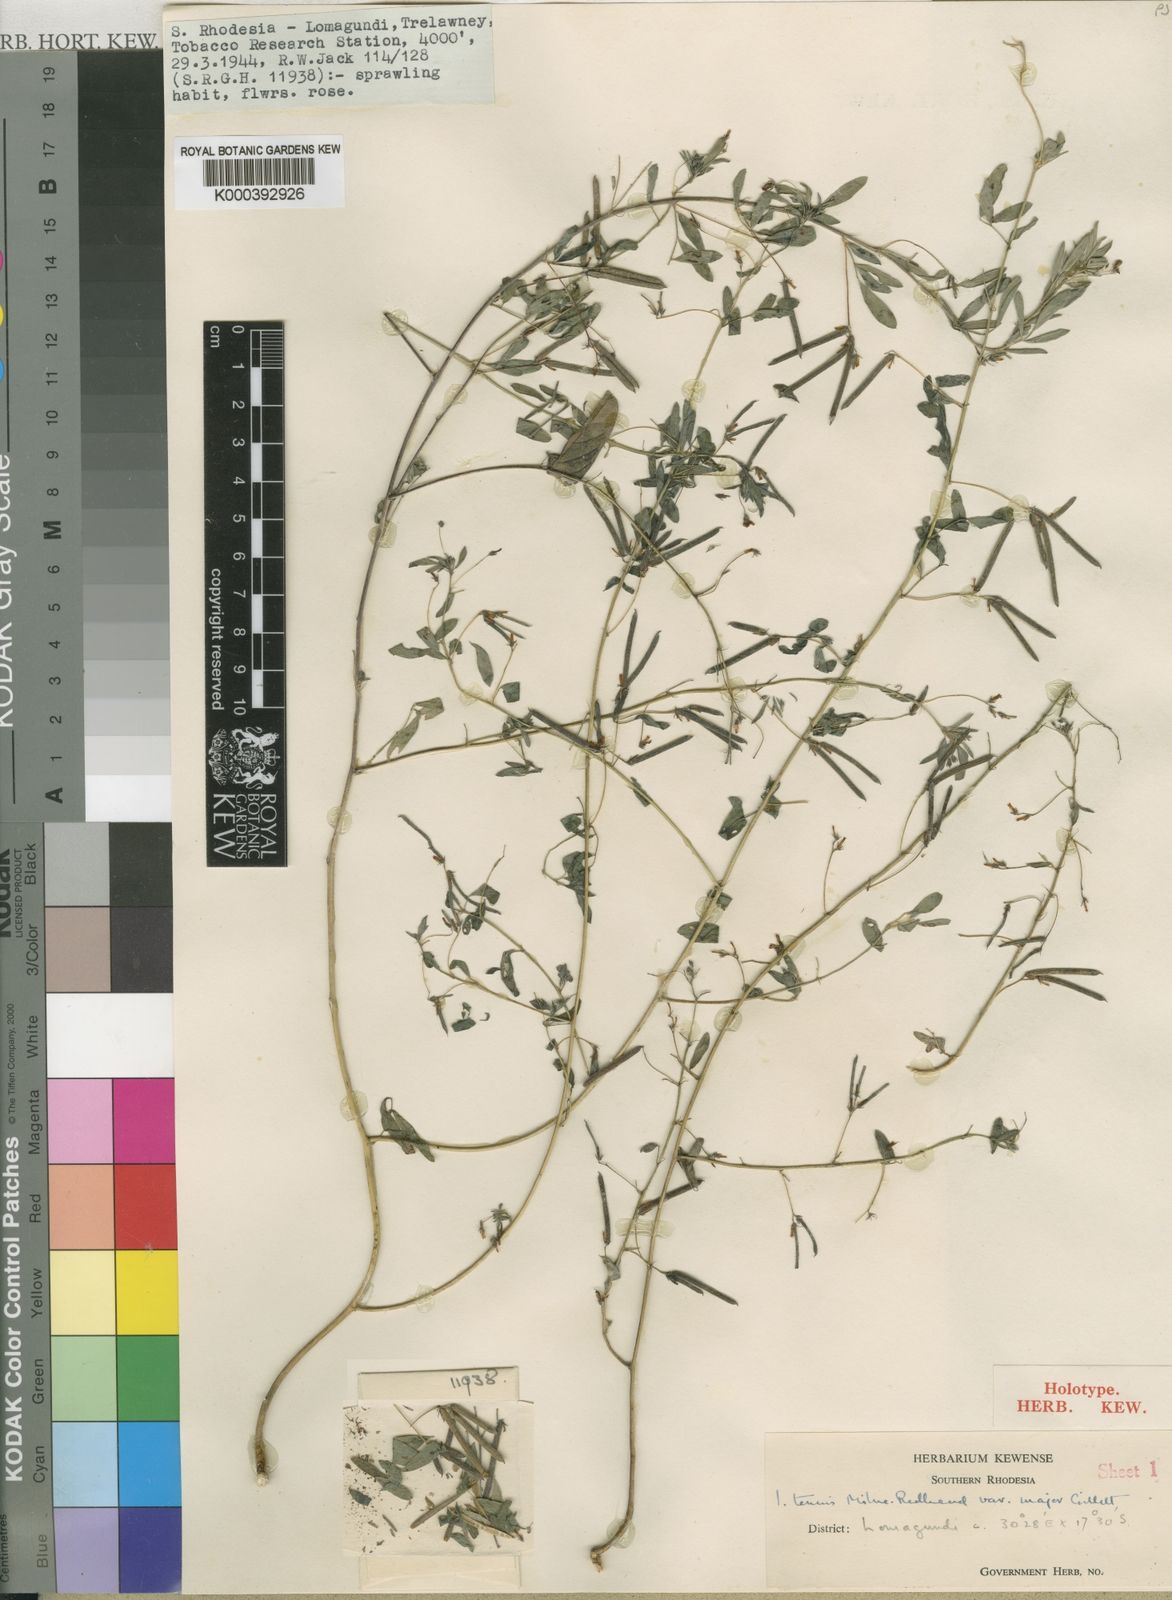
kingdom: Plantae
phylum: Tracheophyta
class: Magnoliopsida
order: Fabales
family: Fabaceae
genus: Indigofera
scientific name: Indigofera dissitiflora
